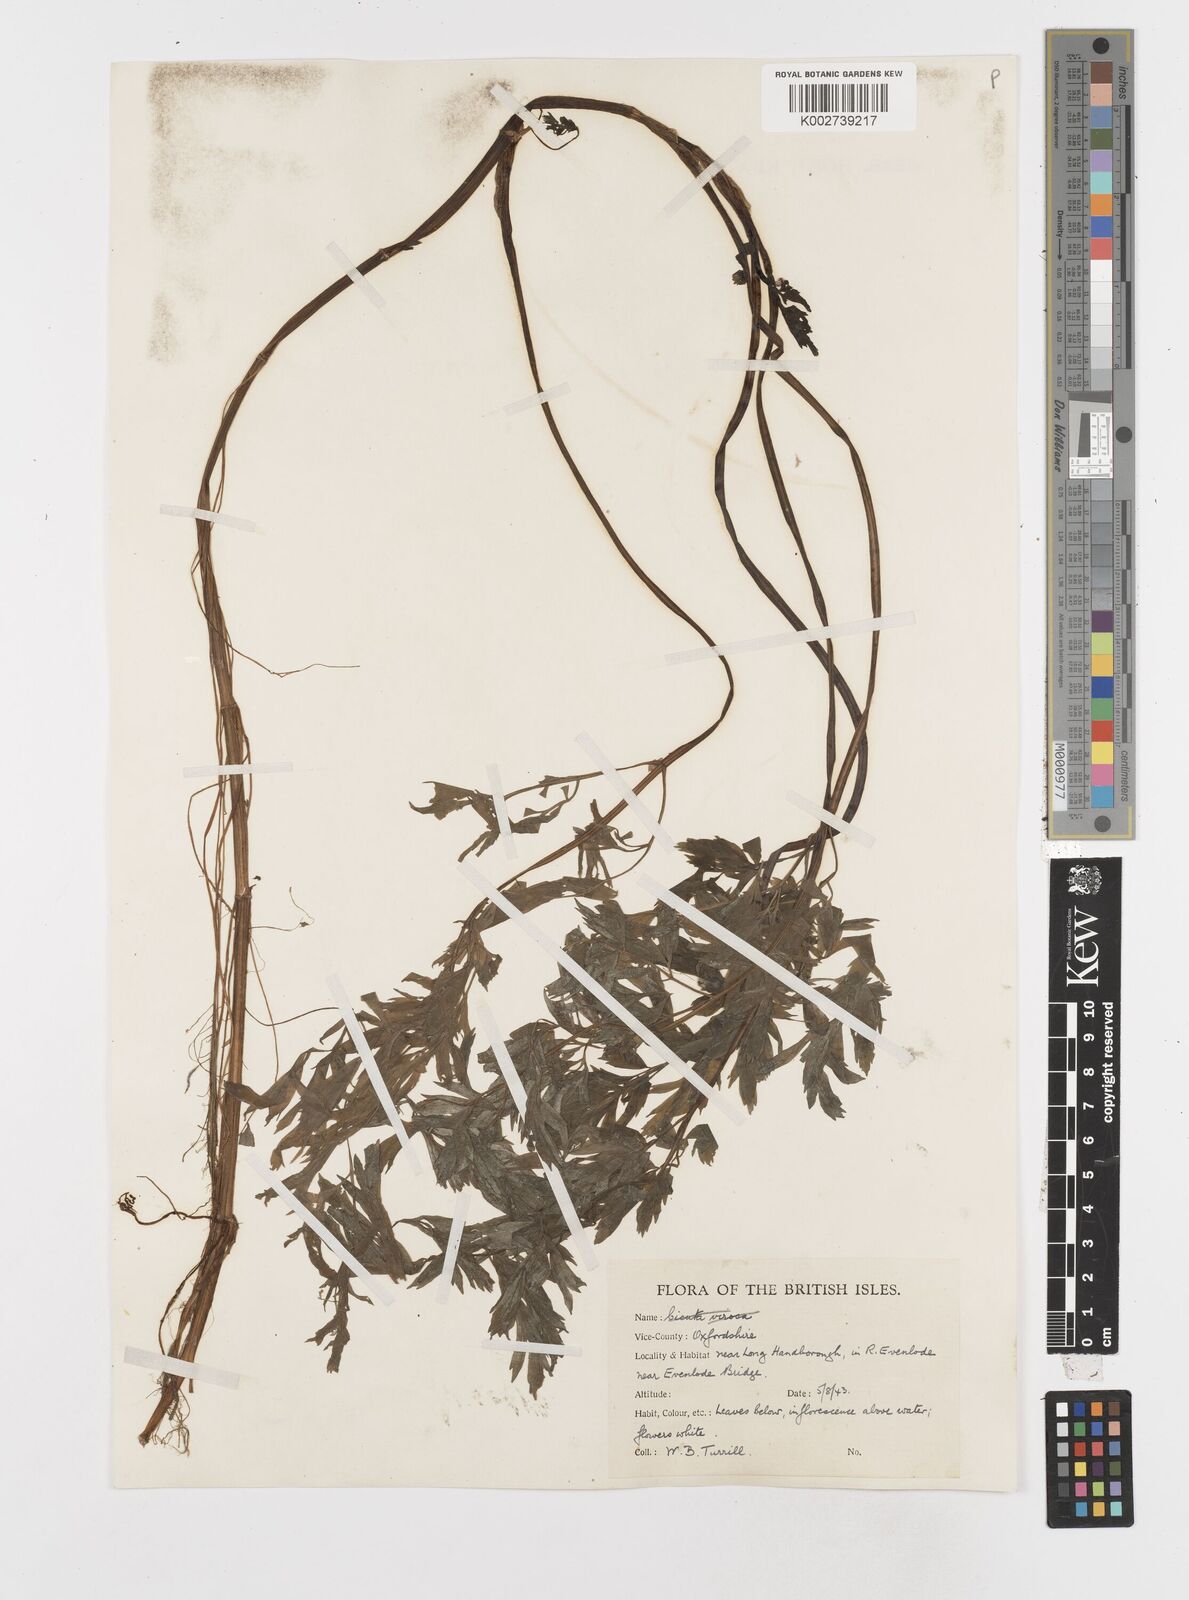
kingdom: Plantae
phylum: Tracheophyta
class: Magnoliopsida
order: Apiales
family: Apiaceae
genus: Oenanthe
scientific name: Oenanthe fluviatilis
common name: River water-dropwort
